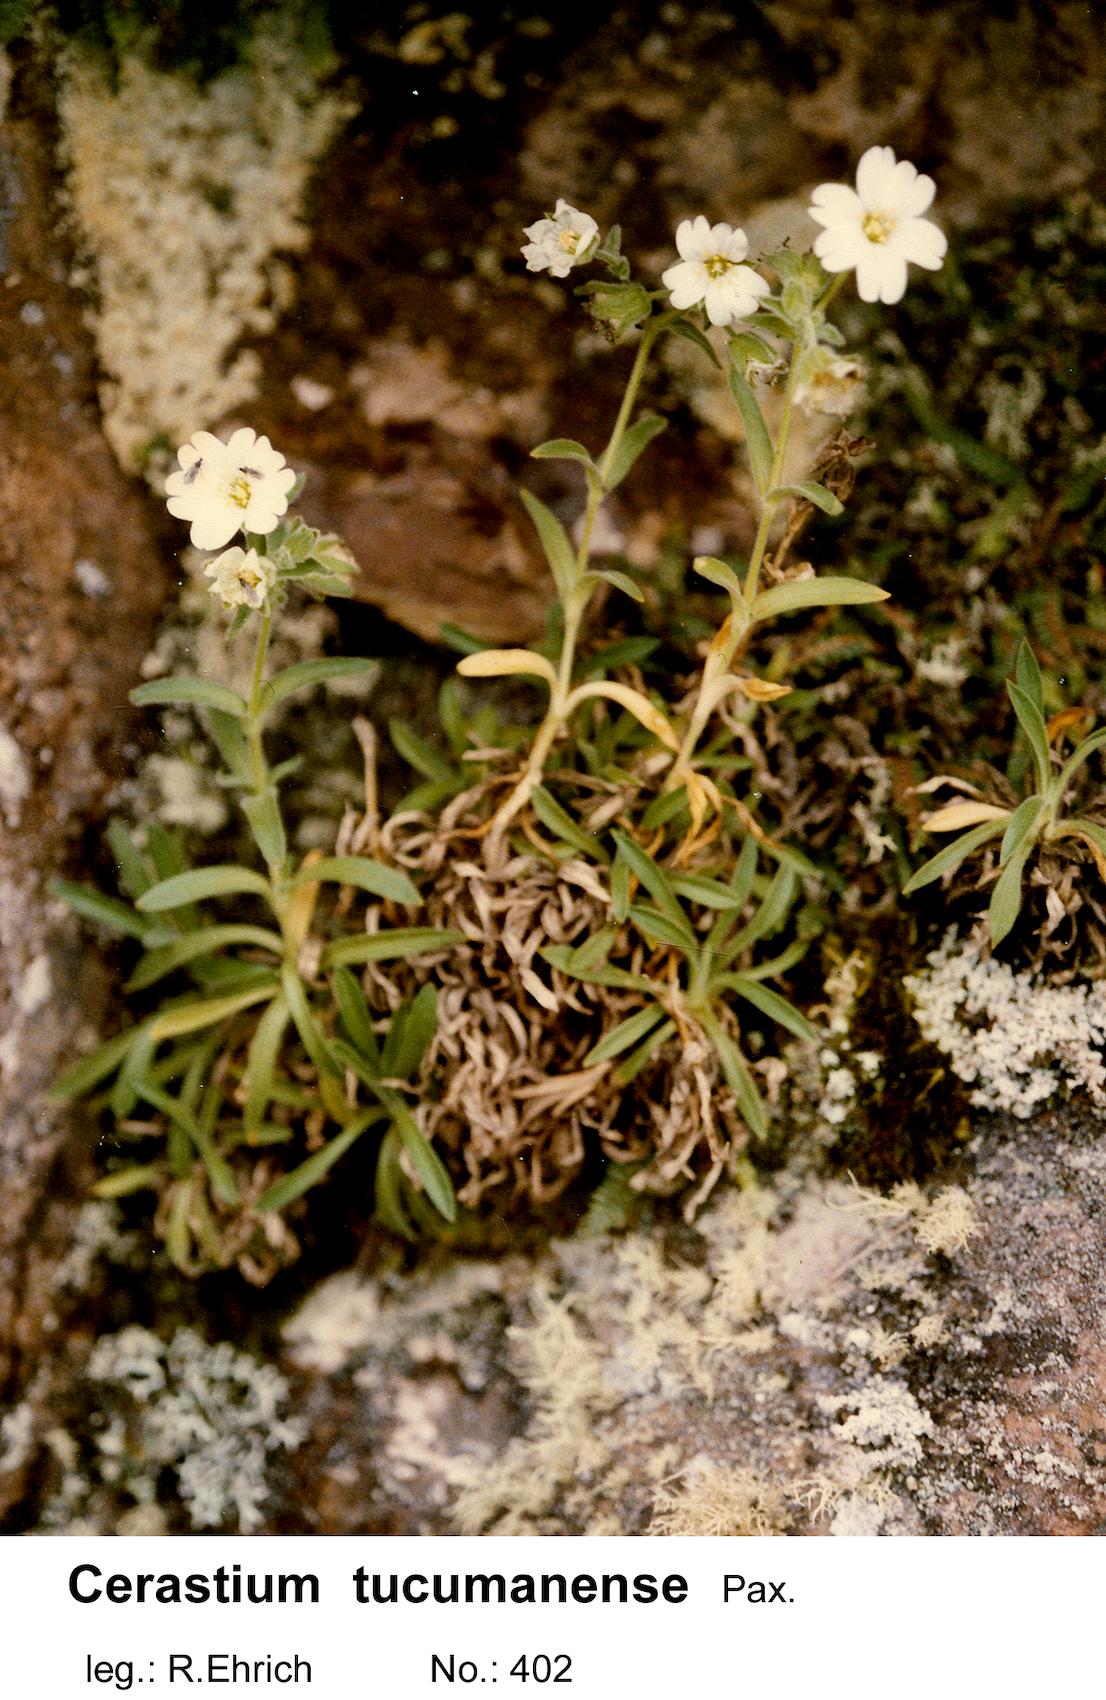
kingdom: Plantae
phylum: Tracheophyta
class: Magnoliopsida
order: Caryophyllales
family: Caryophyllaceae
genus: Cerastium
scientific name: Cerastium tucumanense
